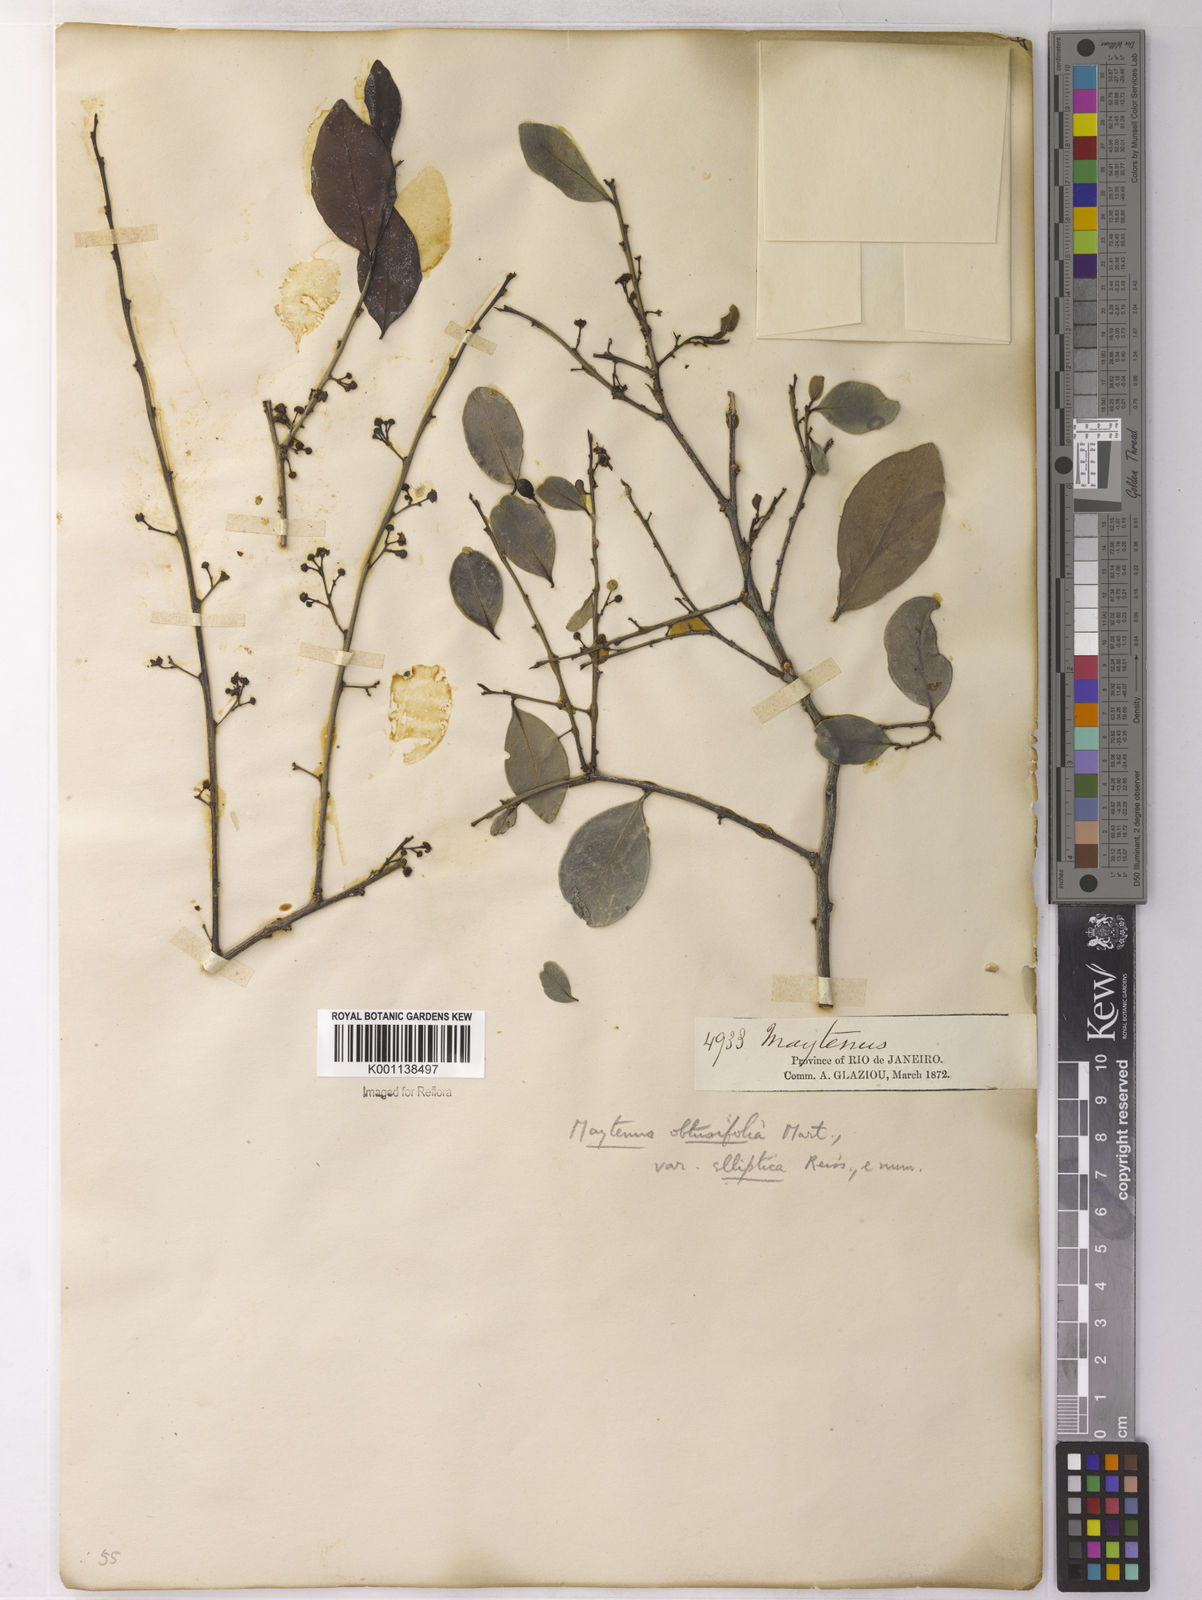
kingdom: Plantae
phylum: Tracheophyta
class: Magnoliopsida
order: Celastrales
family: Celastraceae
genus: Monteverdia
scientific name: Monteverdia obtusifolia
